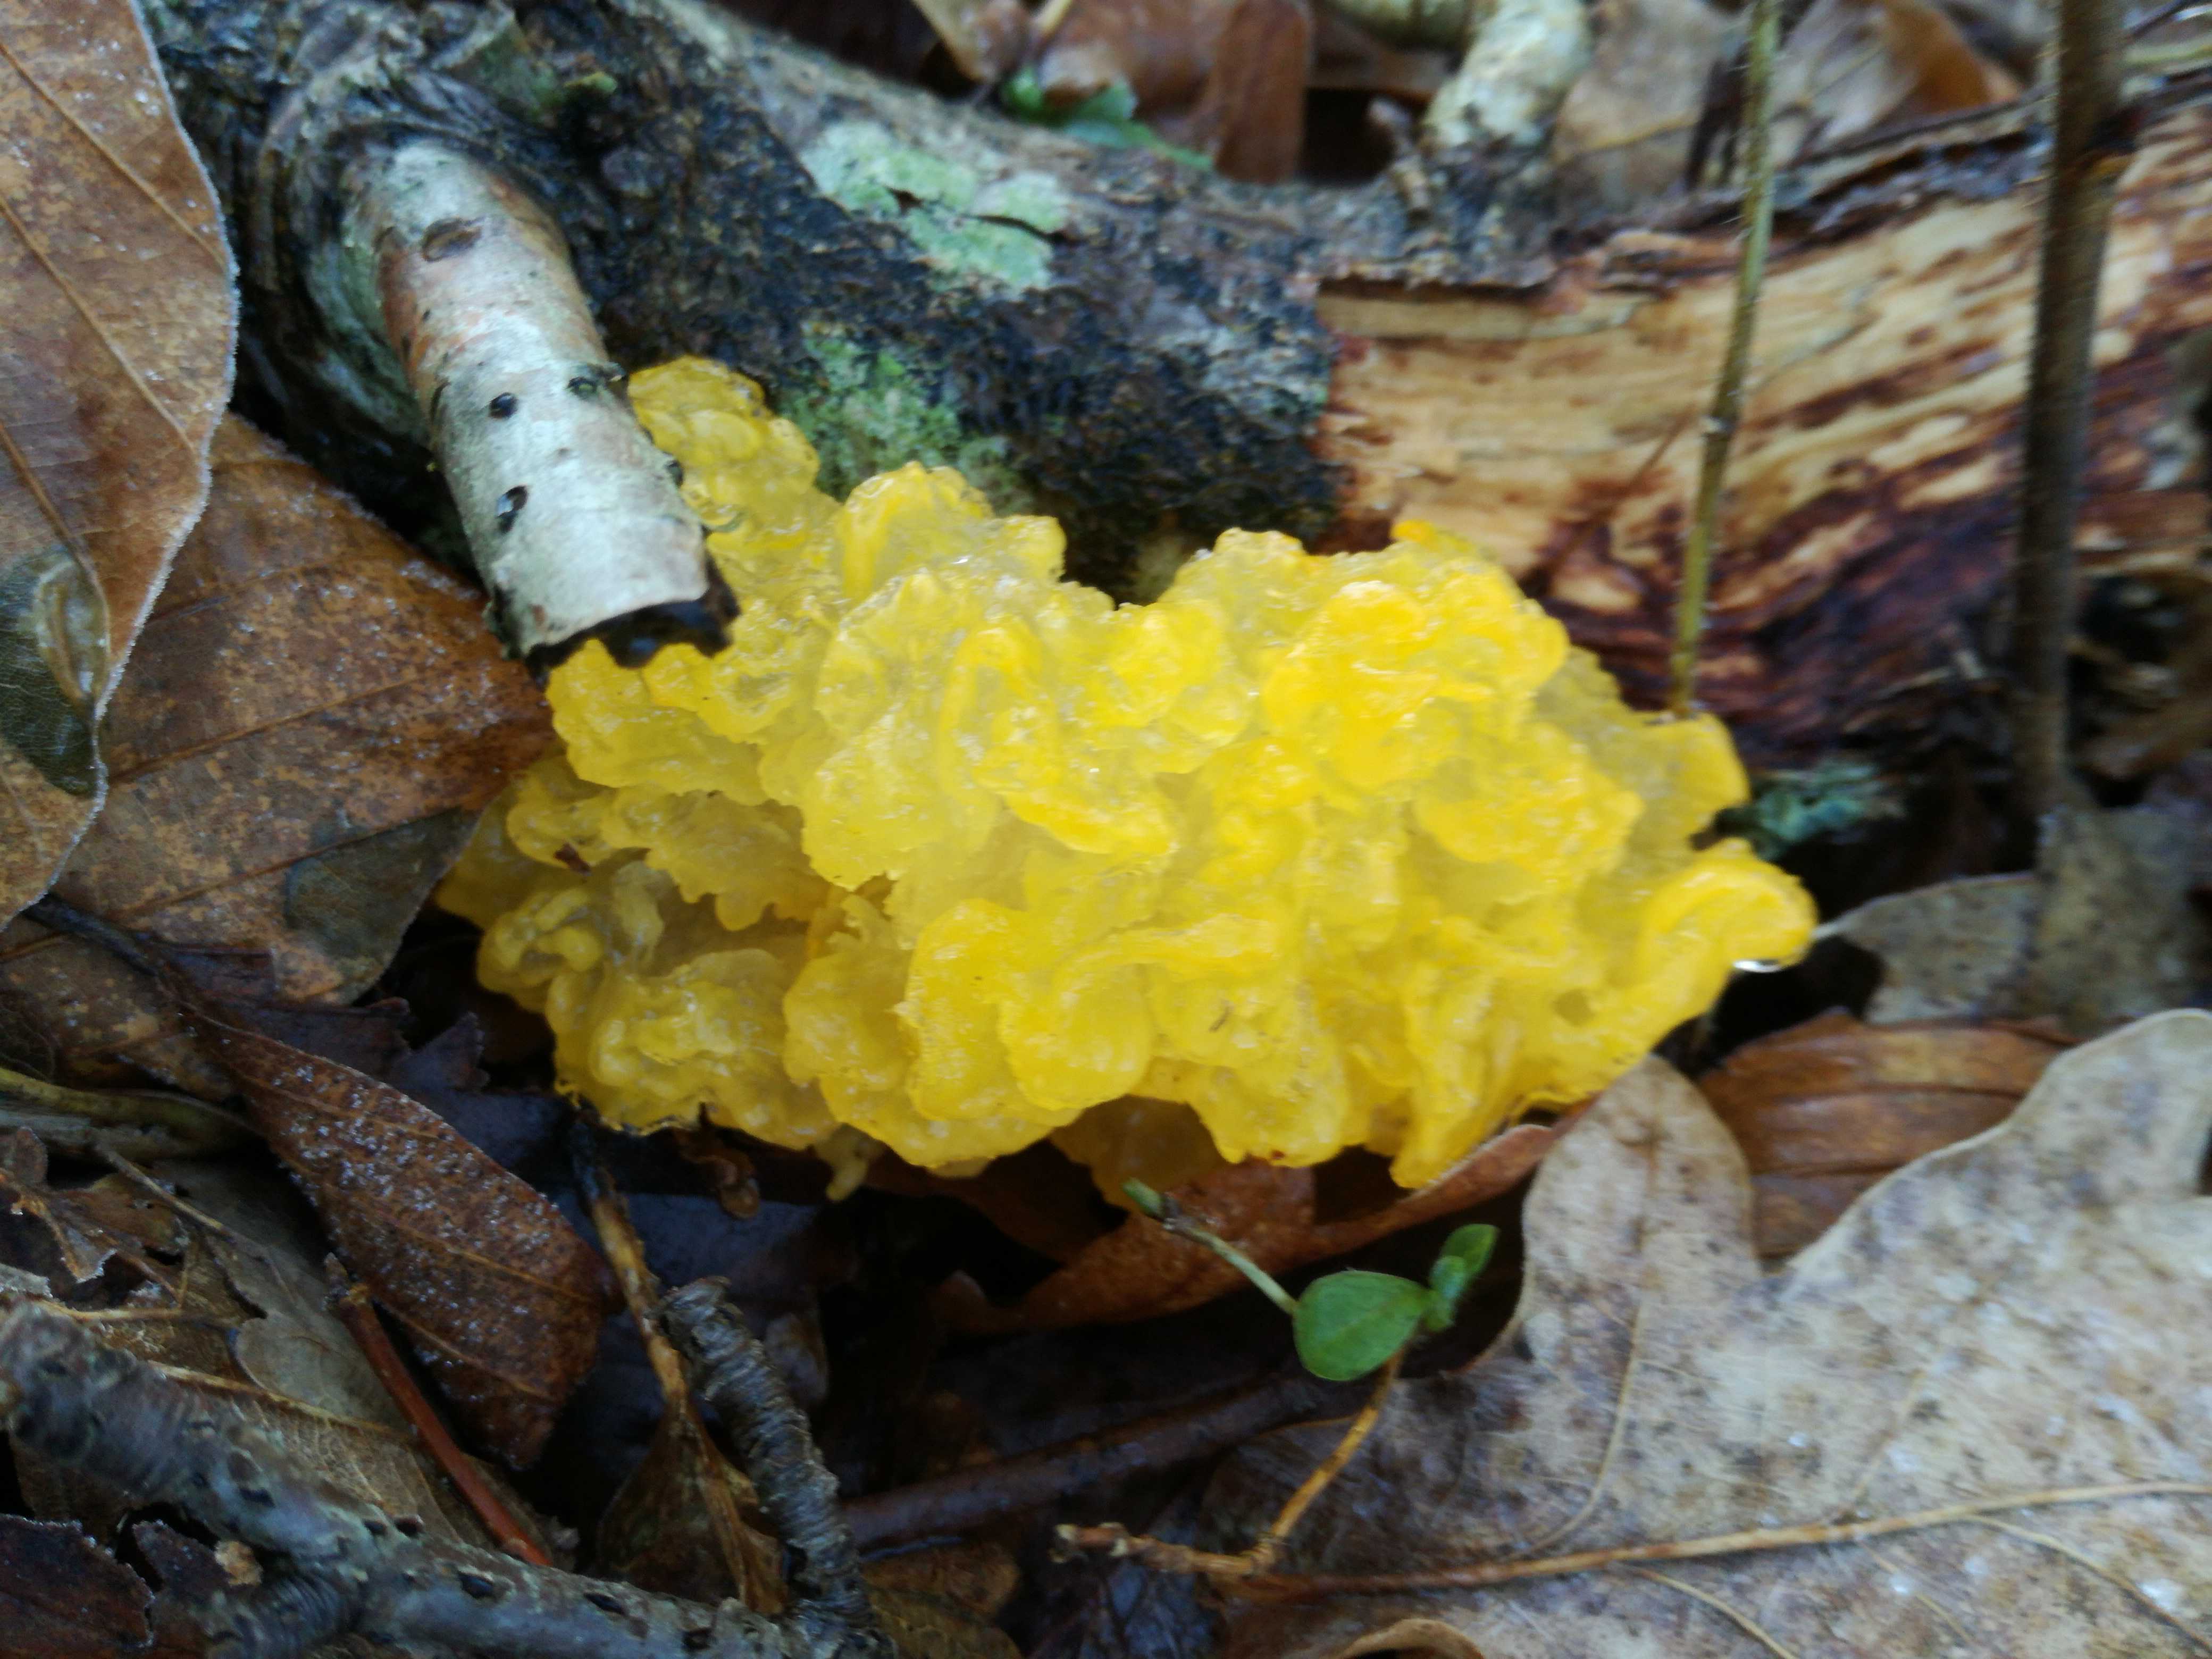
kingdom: Fungi
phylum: Basidiomycota
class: Tremellomycetes
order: Tremellales
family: Tremellaceae
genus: Tremella
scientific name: Tremella mesenterica
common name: gul bævresvamp
